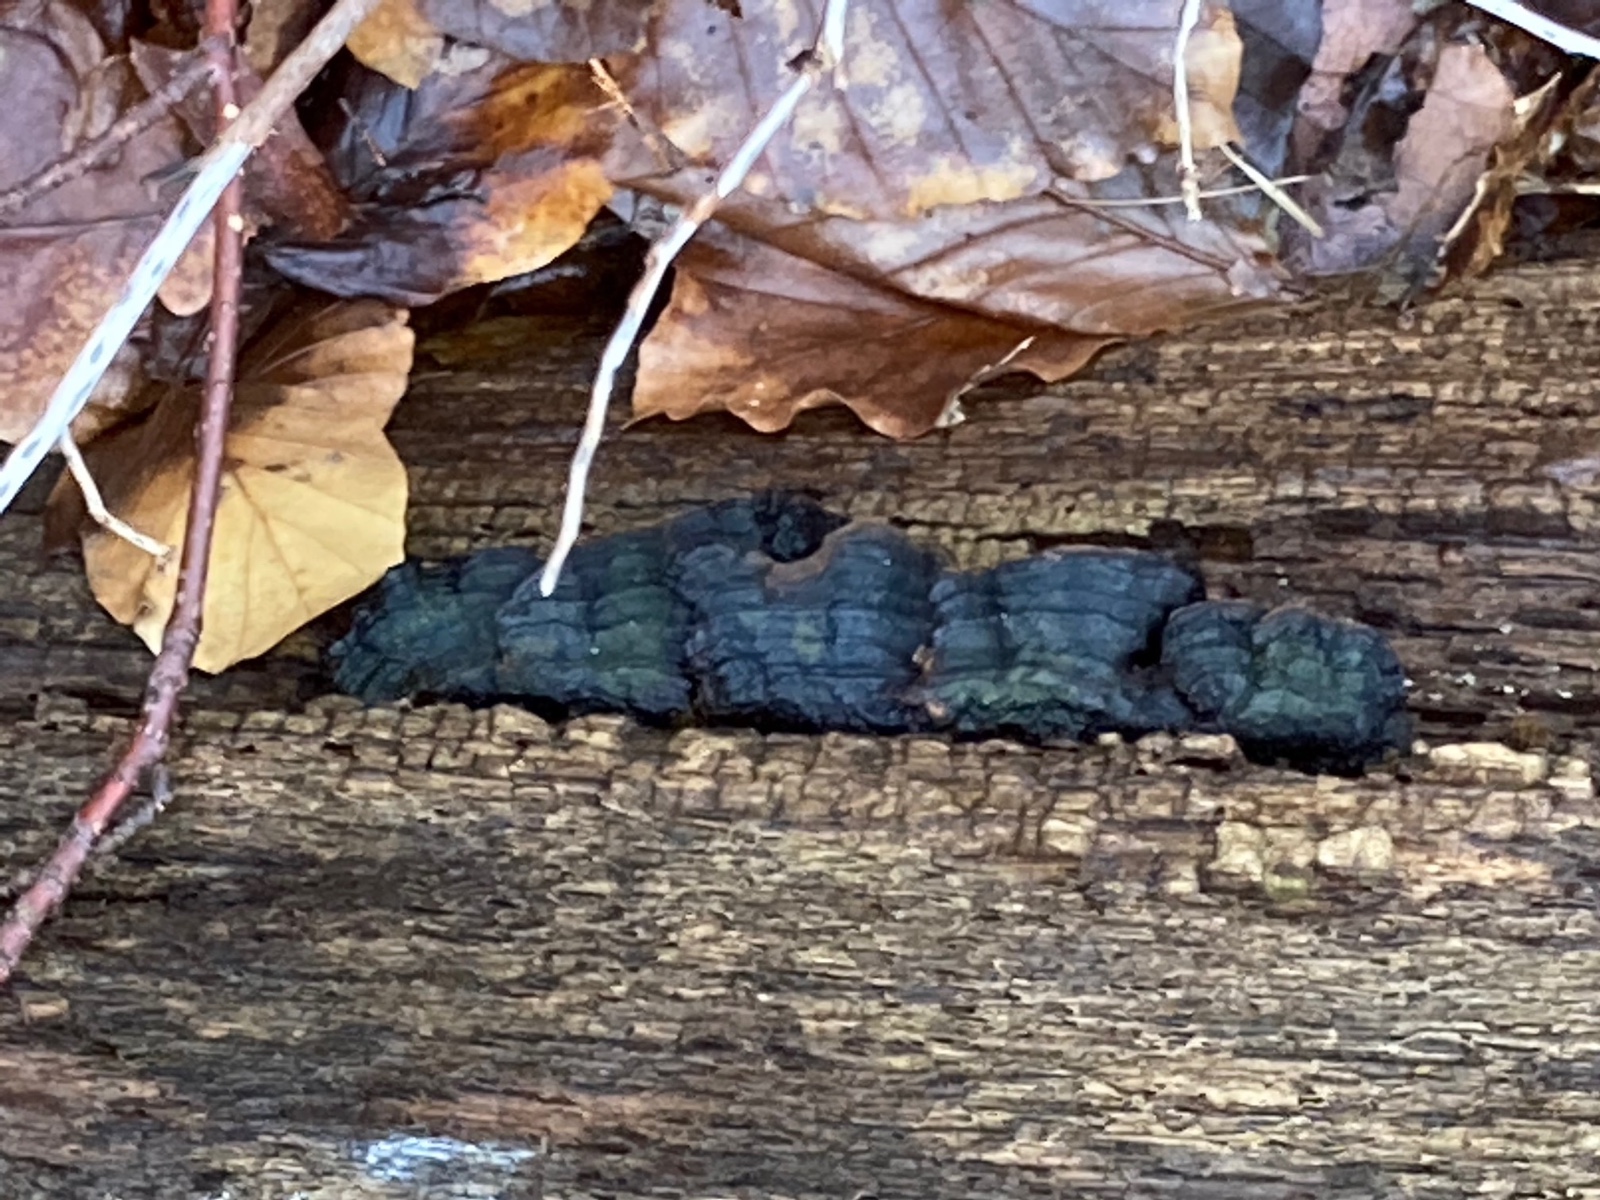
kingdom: Fungi
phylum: Basidiomycota
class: Agaricomycetes
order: Hymenochaetales
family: Hymenochaetaceae
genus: Hymenochaete
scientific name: Hymenochaete rubiginosa
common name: stiv ruslædersvamp
